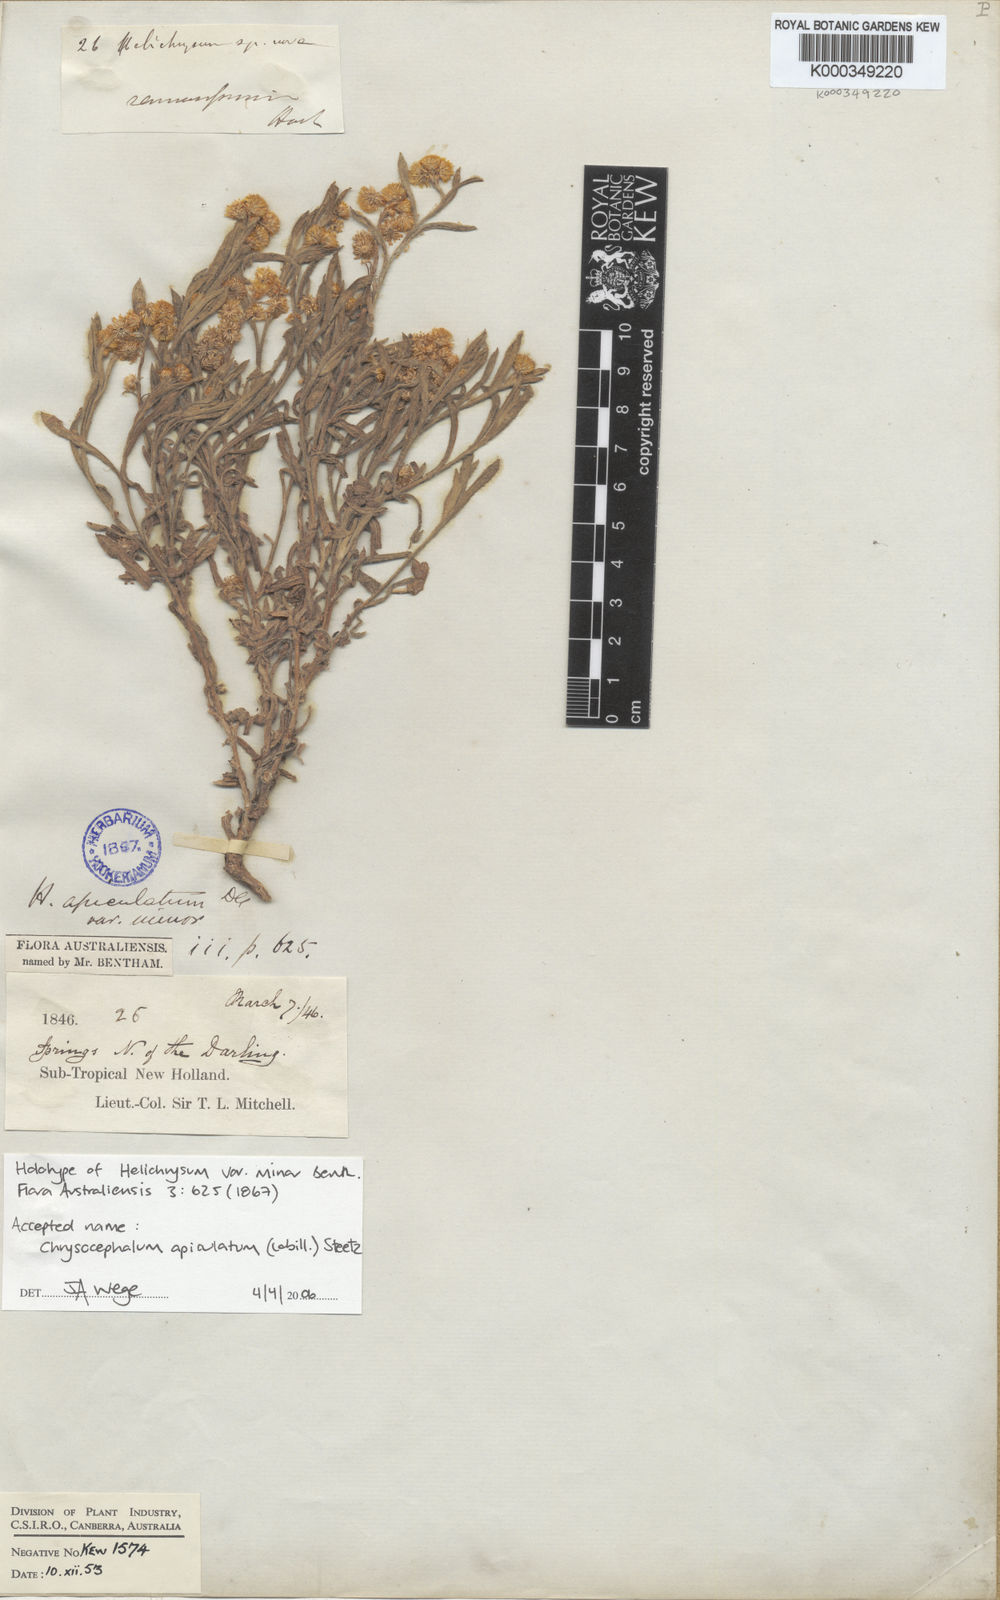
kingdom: Plantae
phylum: Tracheophyta
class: Magnoliopsida
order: Asterales
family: Asteraceae
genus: Chrysocephalum
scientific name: Chrysocephalum apiculatum
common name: Common everlasting
